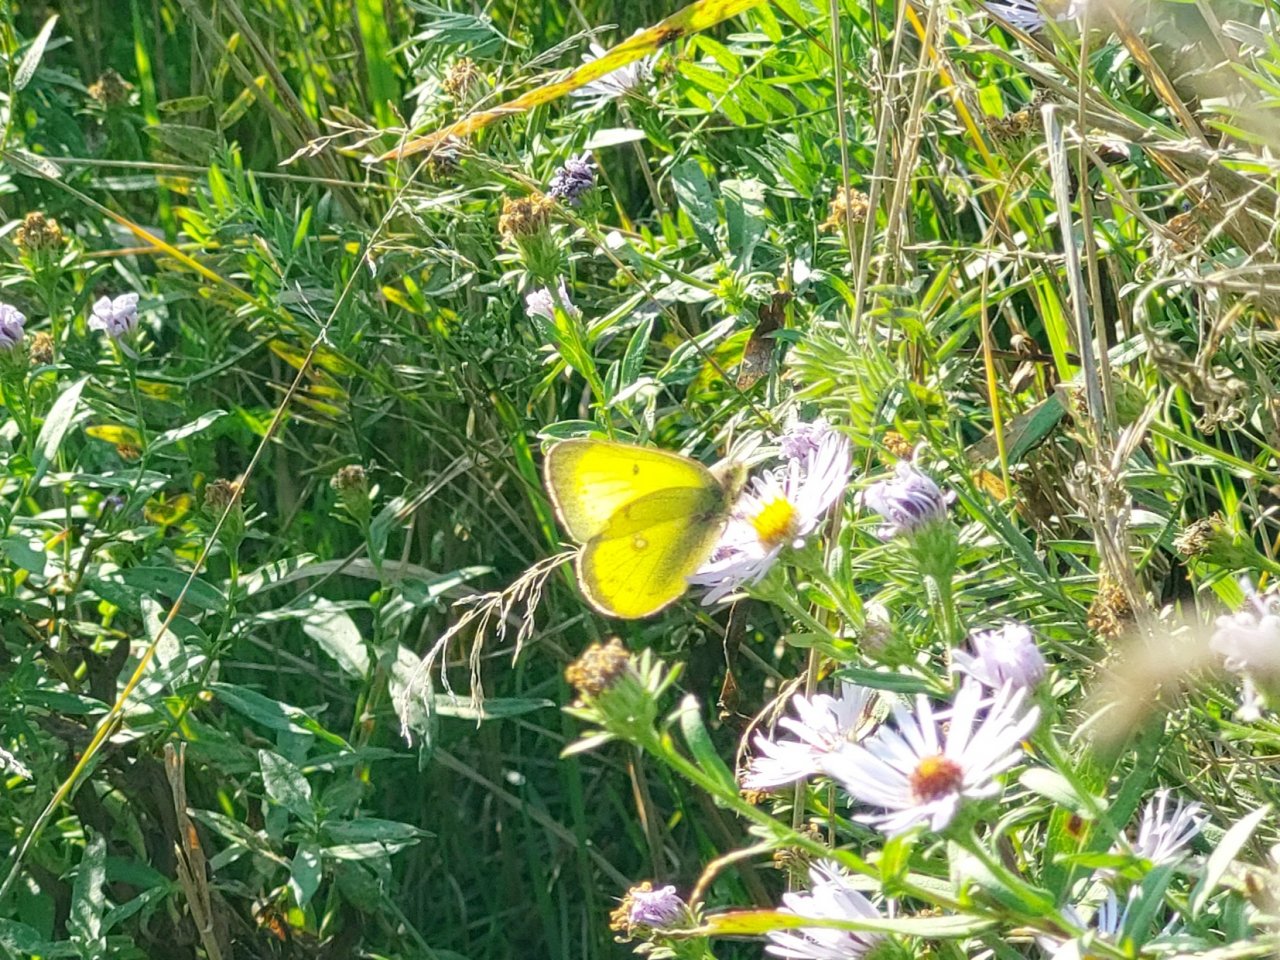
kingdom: Animalia
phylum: Arthropoda
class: Insecta
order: Lepidoptera
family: Pieridae
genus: Colias
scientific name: Colias philodice
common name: Clouded Sulphur
